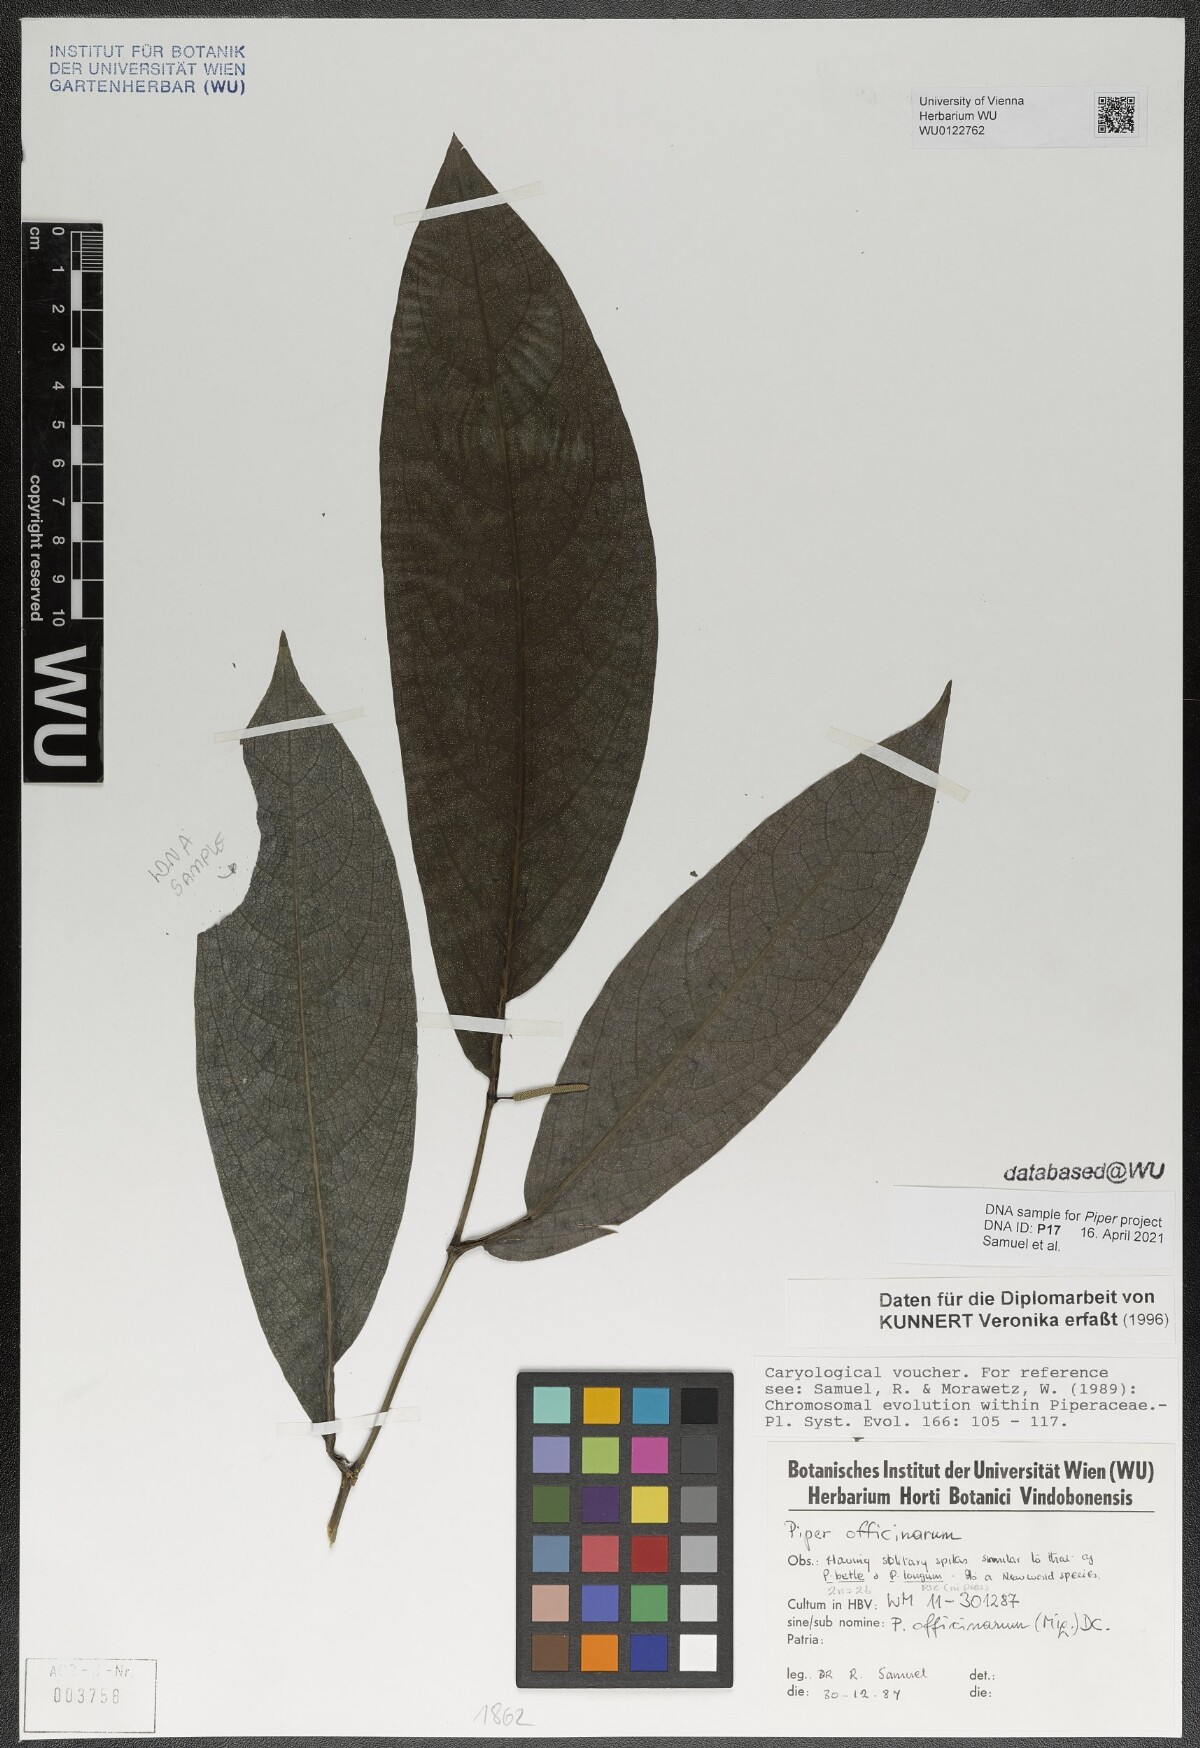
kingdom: Plantae
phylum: Tracheophyta
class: Magnoliopsida
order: Piperales
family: Piperaceae
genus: Piper
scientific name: Piper retrofractum
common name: Javanese long pepper
